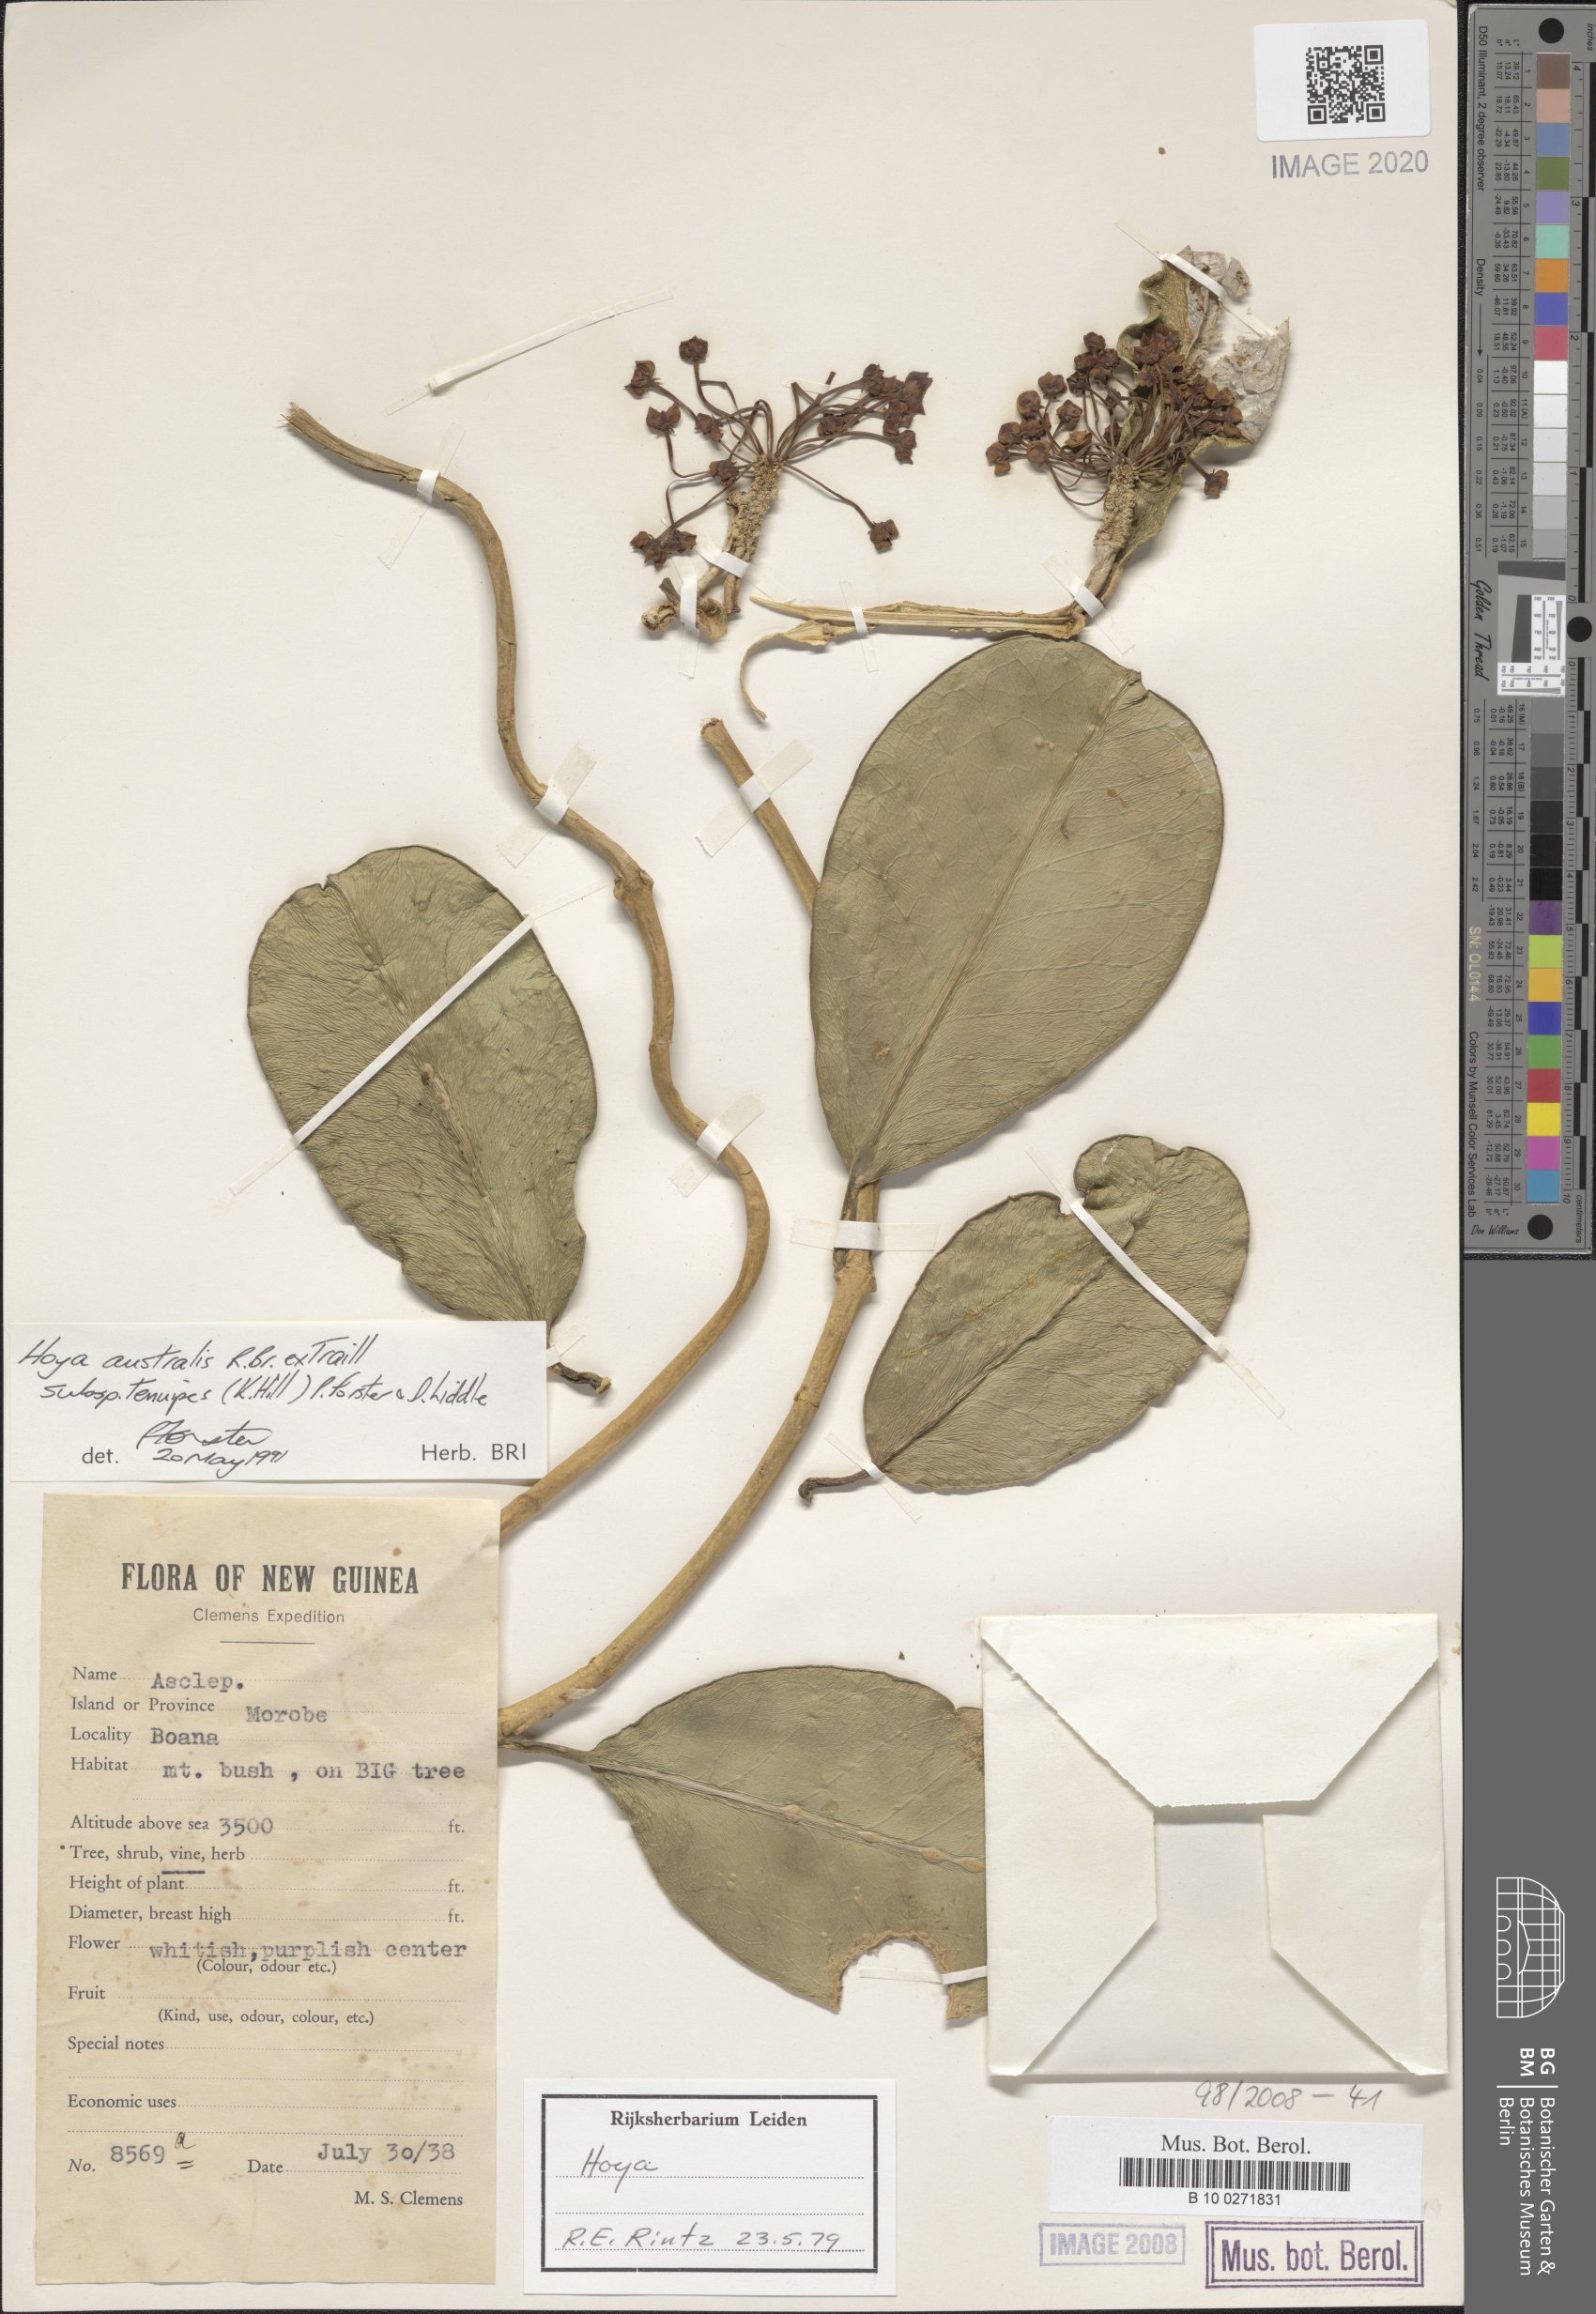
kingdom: Plantae
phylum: Tracheophyta
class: Magnoliopsida
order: Gentianales
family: Apocynaceae
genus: Hoya
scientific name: Hoya australis
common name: Wax flower
